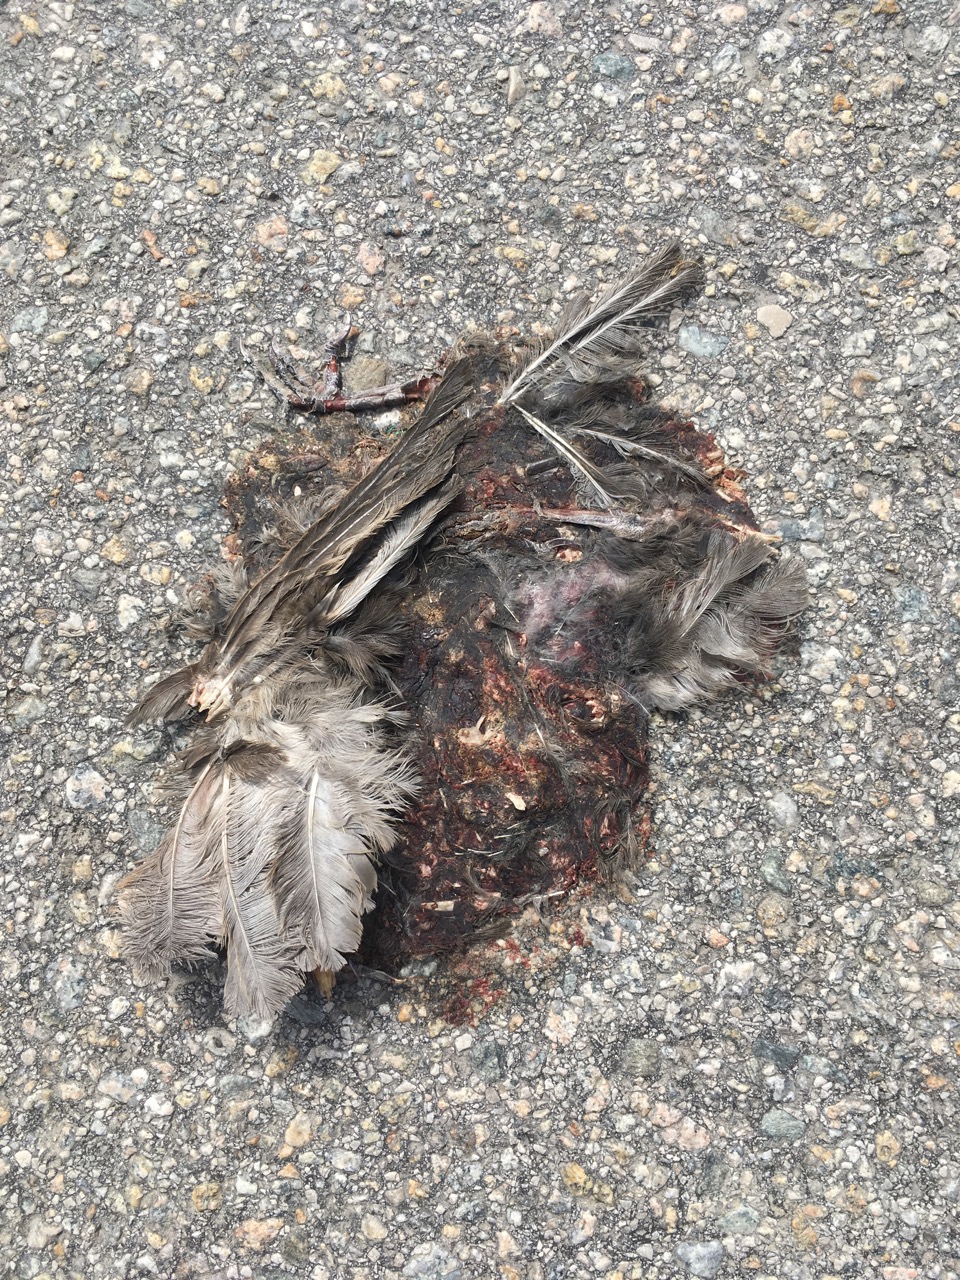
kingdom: Animalia
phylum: Chordata
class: Aves
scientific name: Aves
